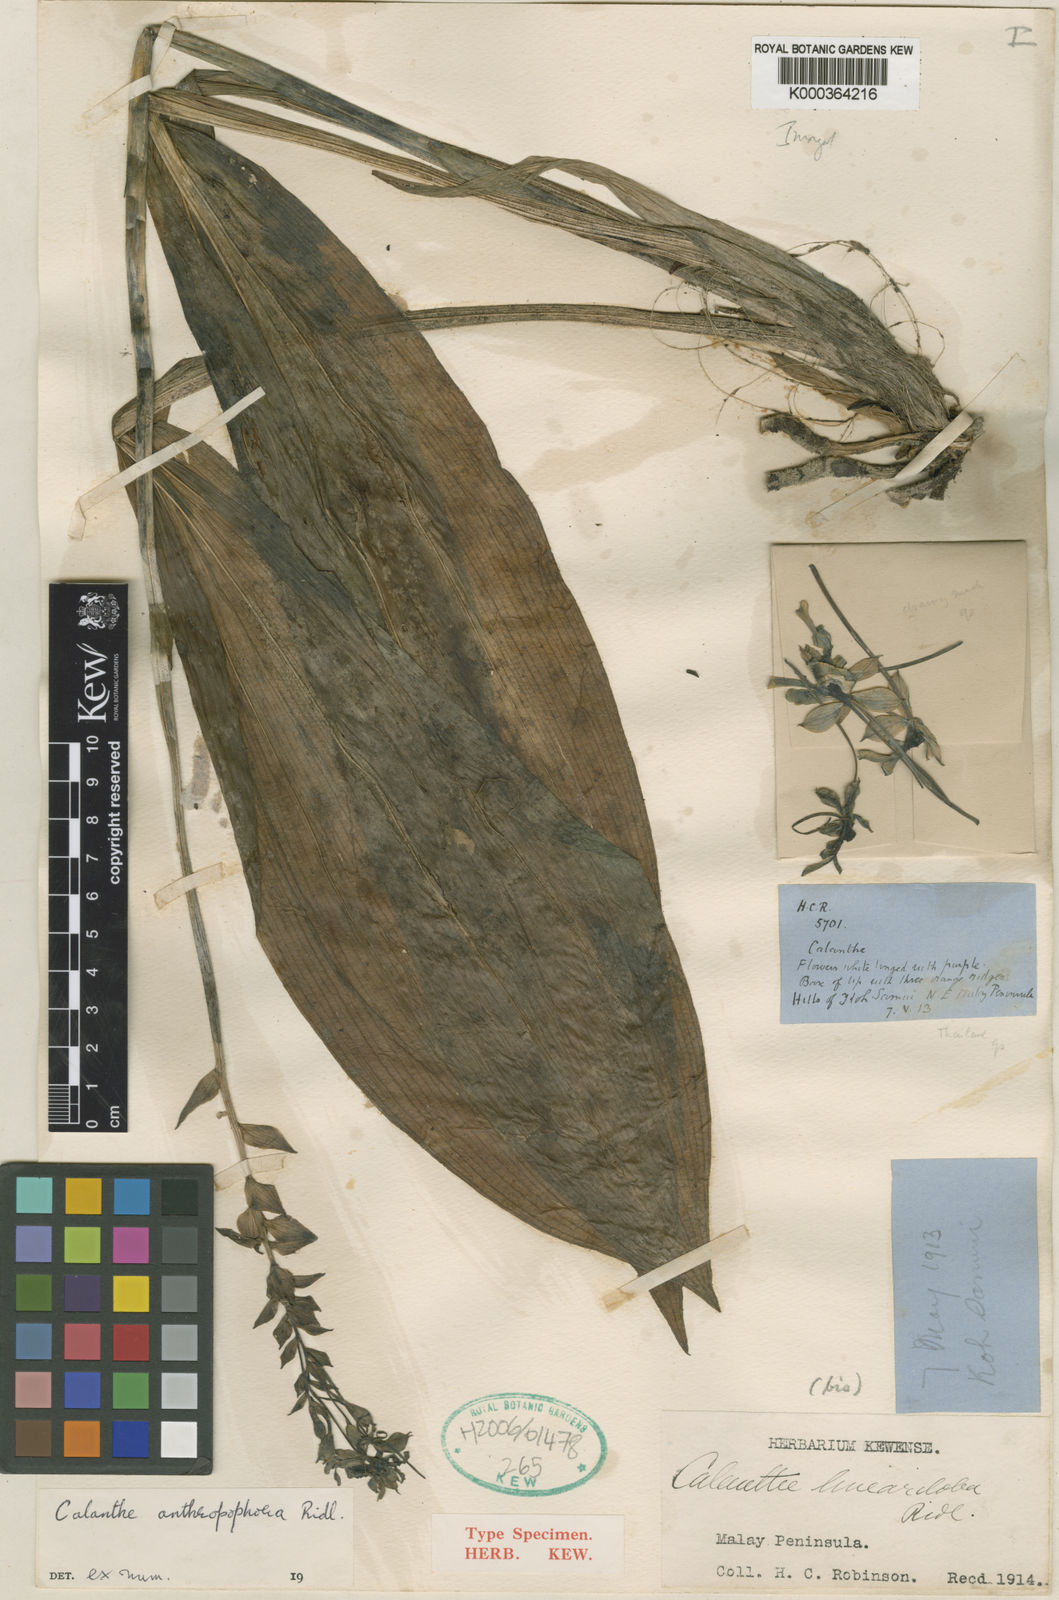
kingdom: Plantae
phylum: Tracheophyta
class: Liliopsida
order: Asparagales
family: Orchidaceae
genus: Calanthe
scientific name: Calanthe
